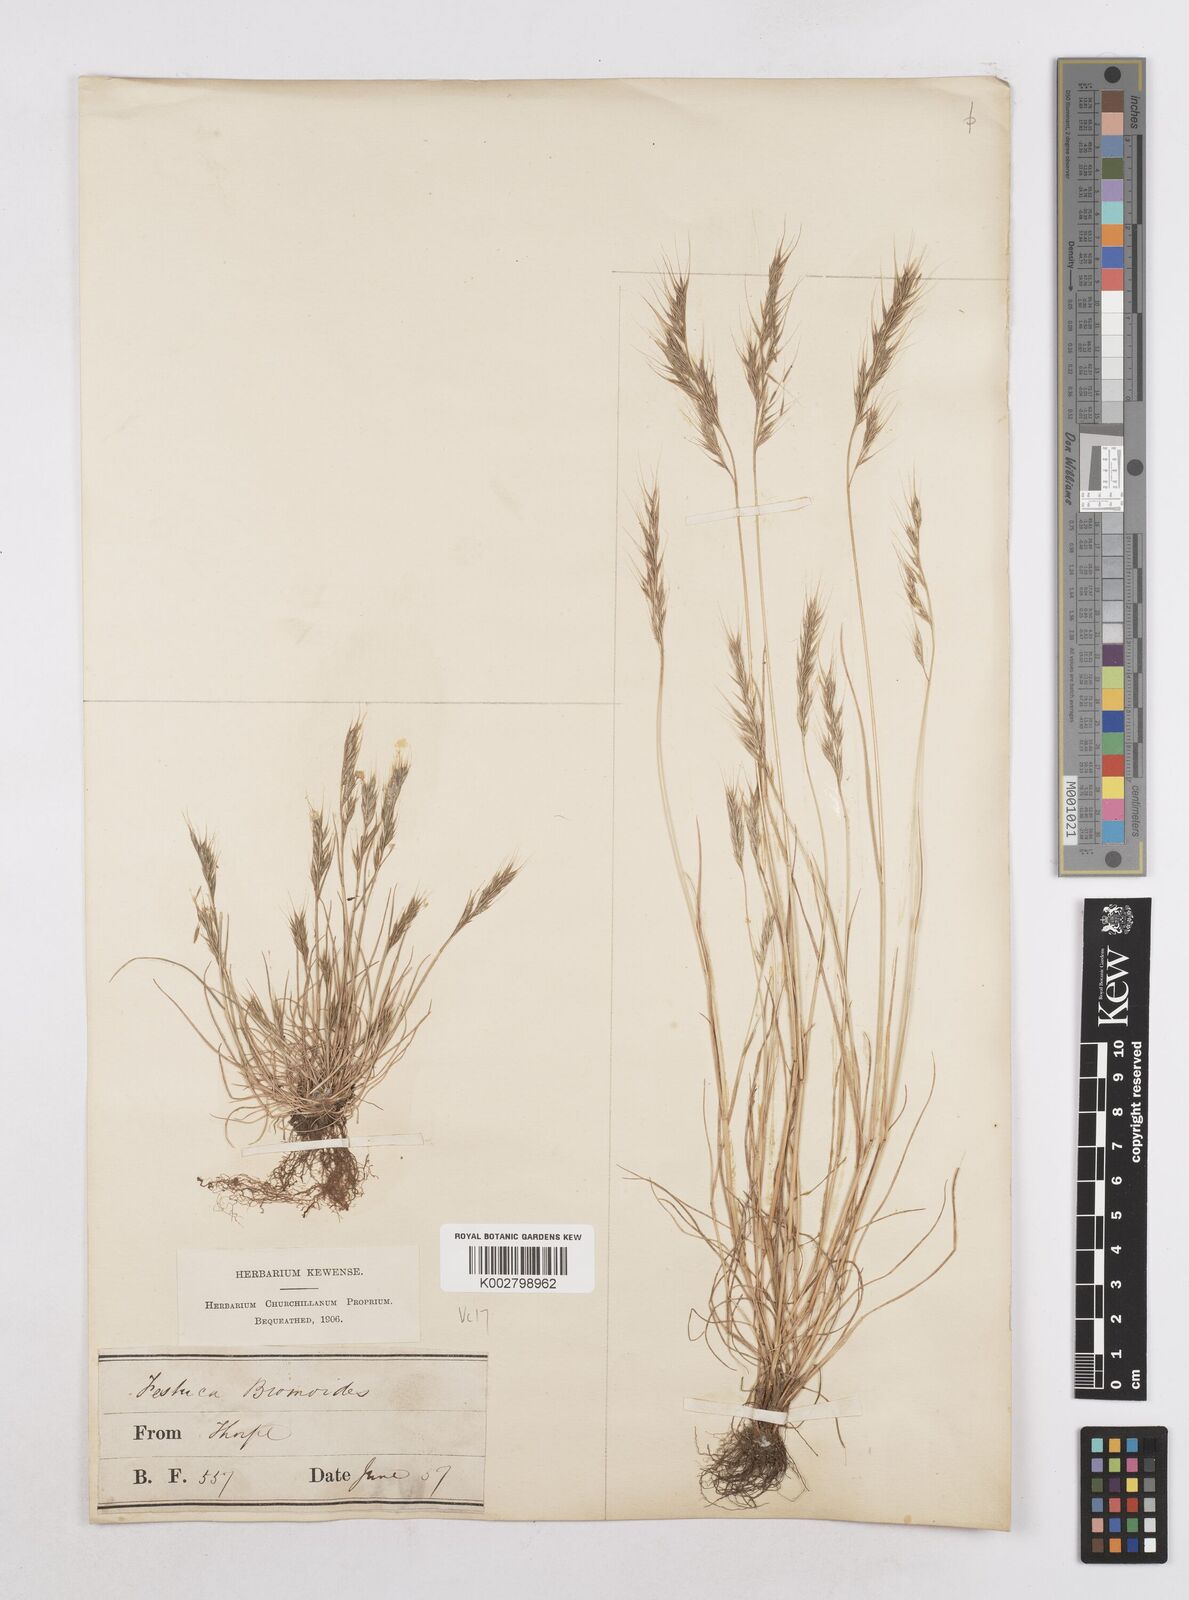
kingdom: Plantae
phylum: Tracheophyta
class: Liliopsida
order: Poales
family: Poaceae
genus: Festuca
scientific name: Festuca bromoides
